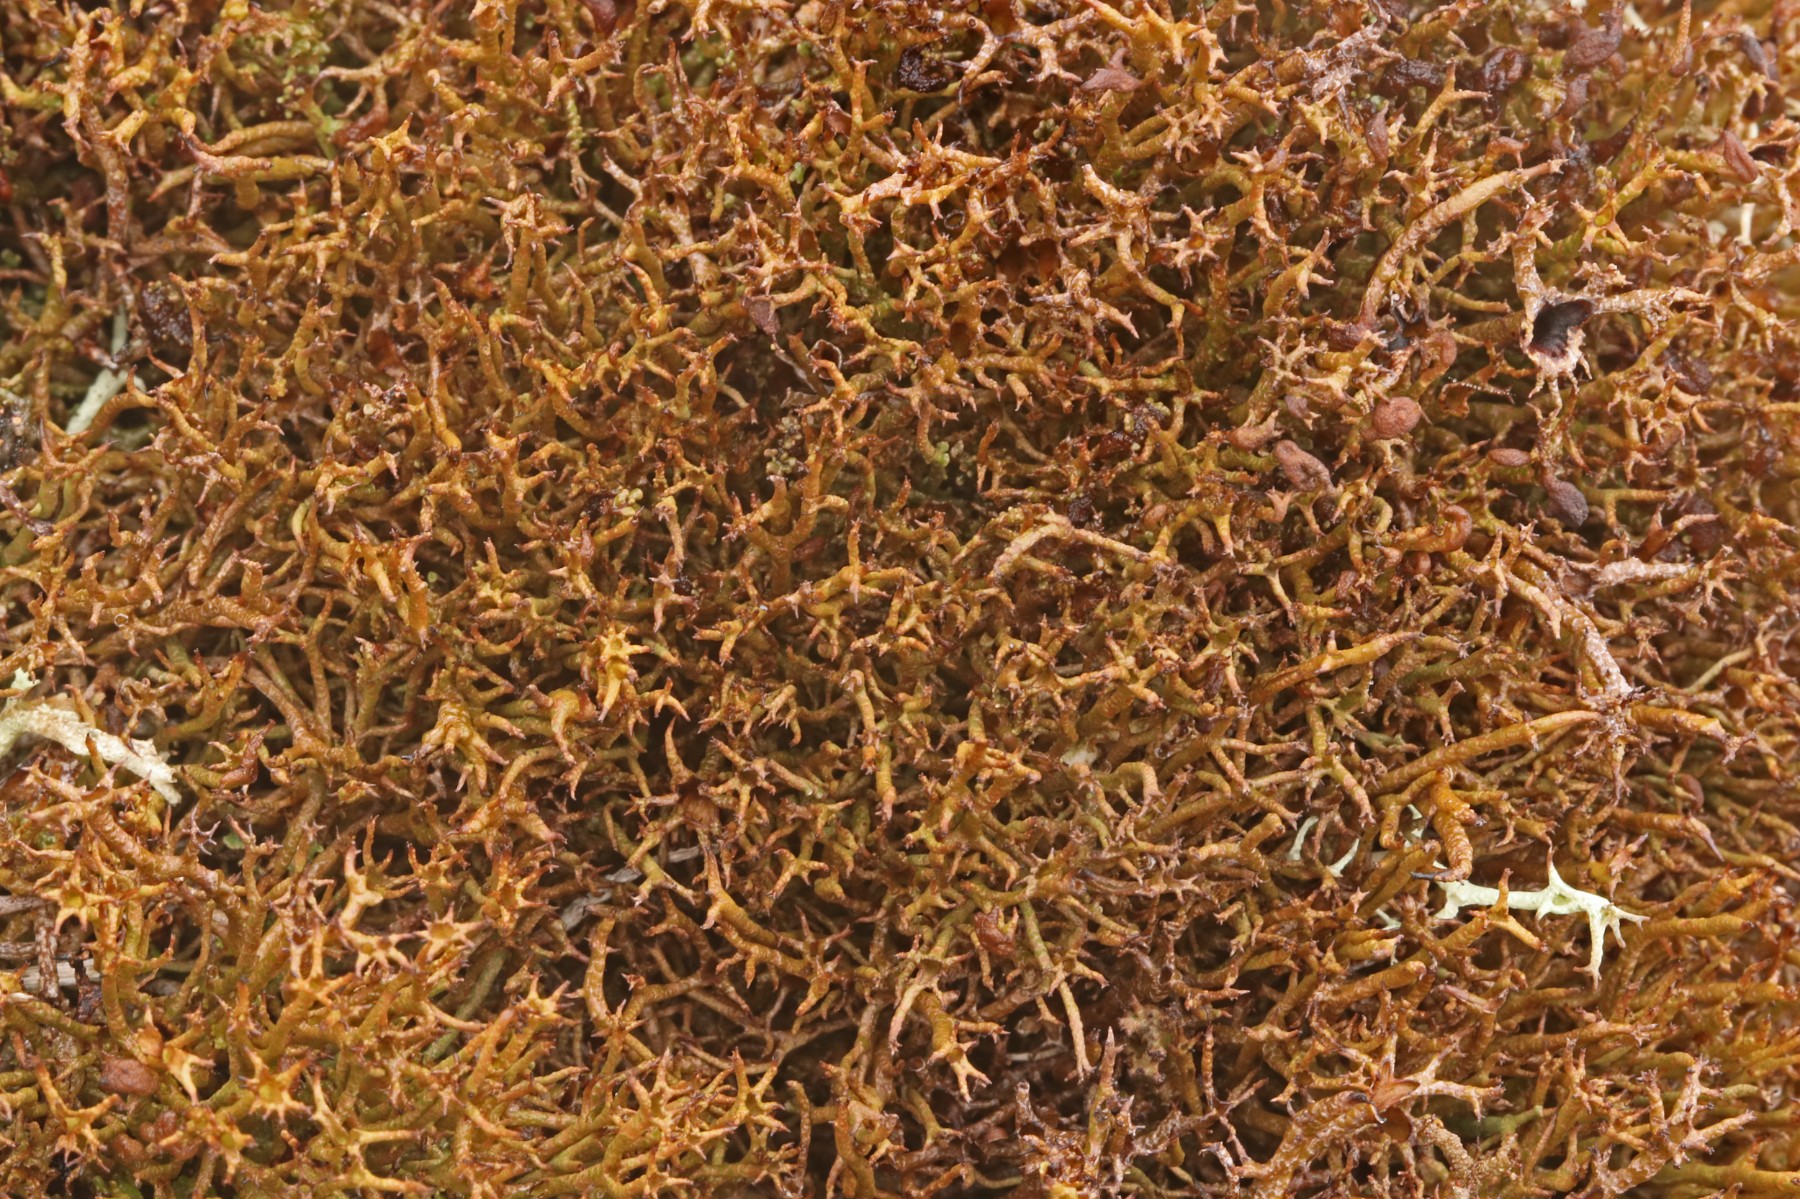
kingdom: Fungi
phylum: Ascomycota
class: Lecanoromycetes
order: Lecanorales
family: Cladoniaceae
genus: Cladonia
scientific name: Cladonia crispata
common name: takket bægerlav
